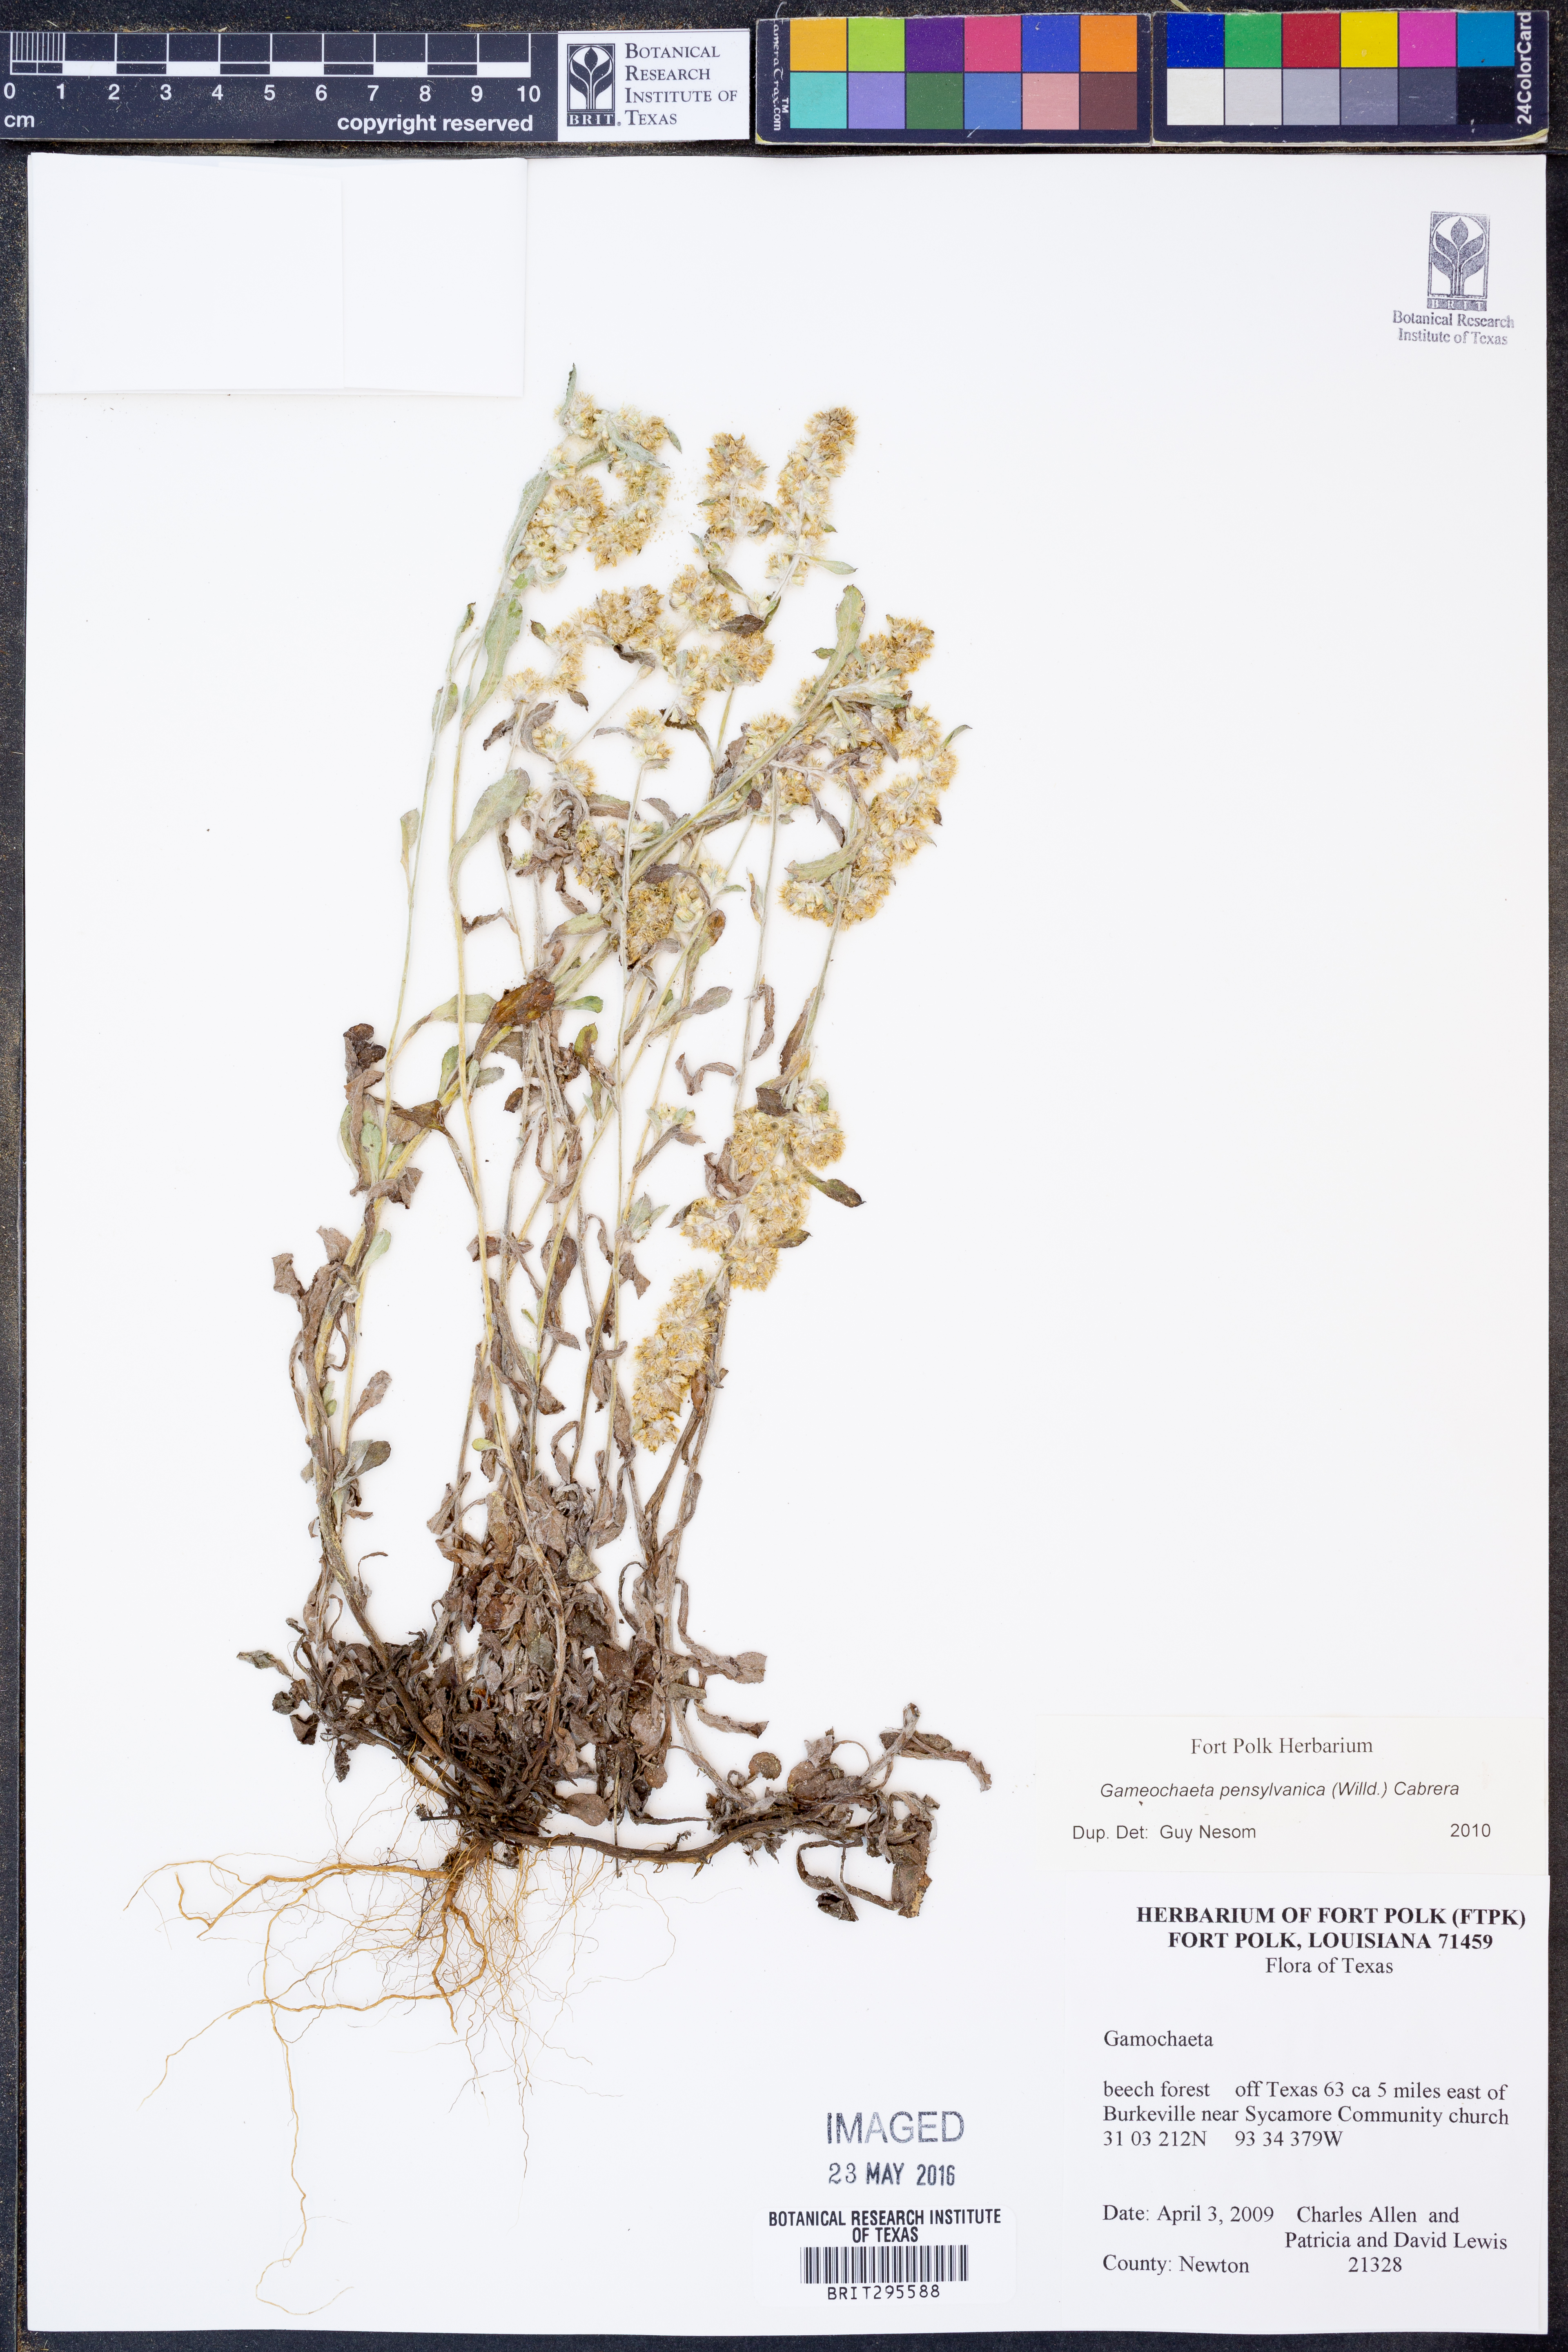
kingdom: Plantae
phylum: Tracheophyta
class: Magnoliopsida
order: Asterales
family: Asteraceae
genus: Gamochaeta
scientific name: Gamochaeta pensylvanica
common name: Pennsylvania everlasting
